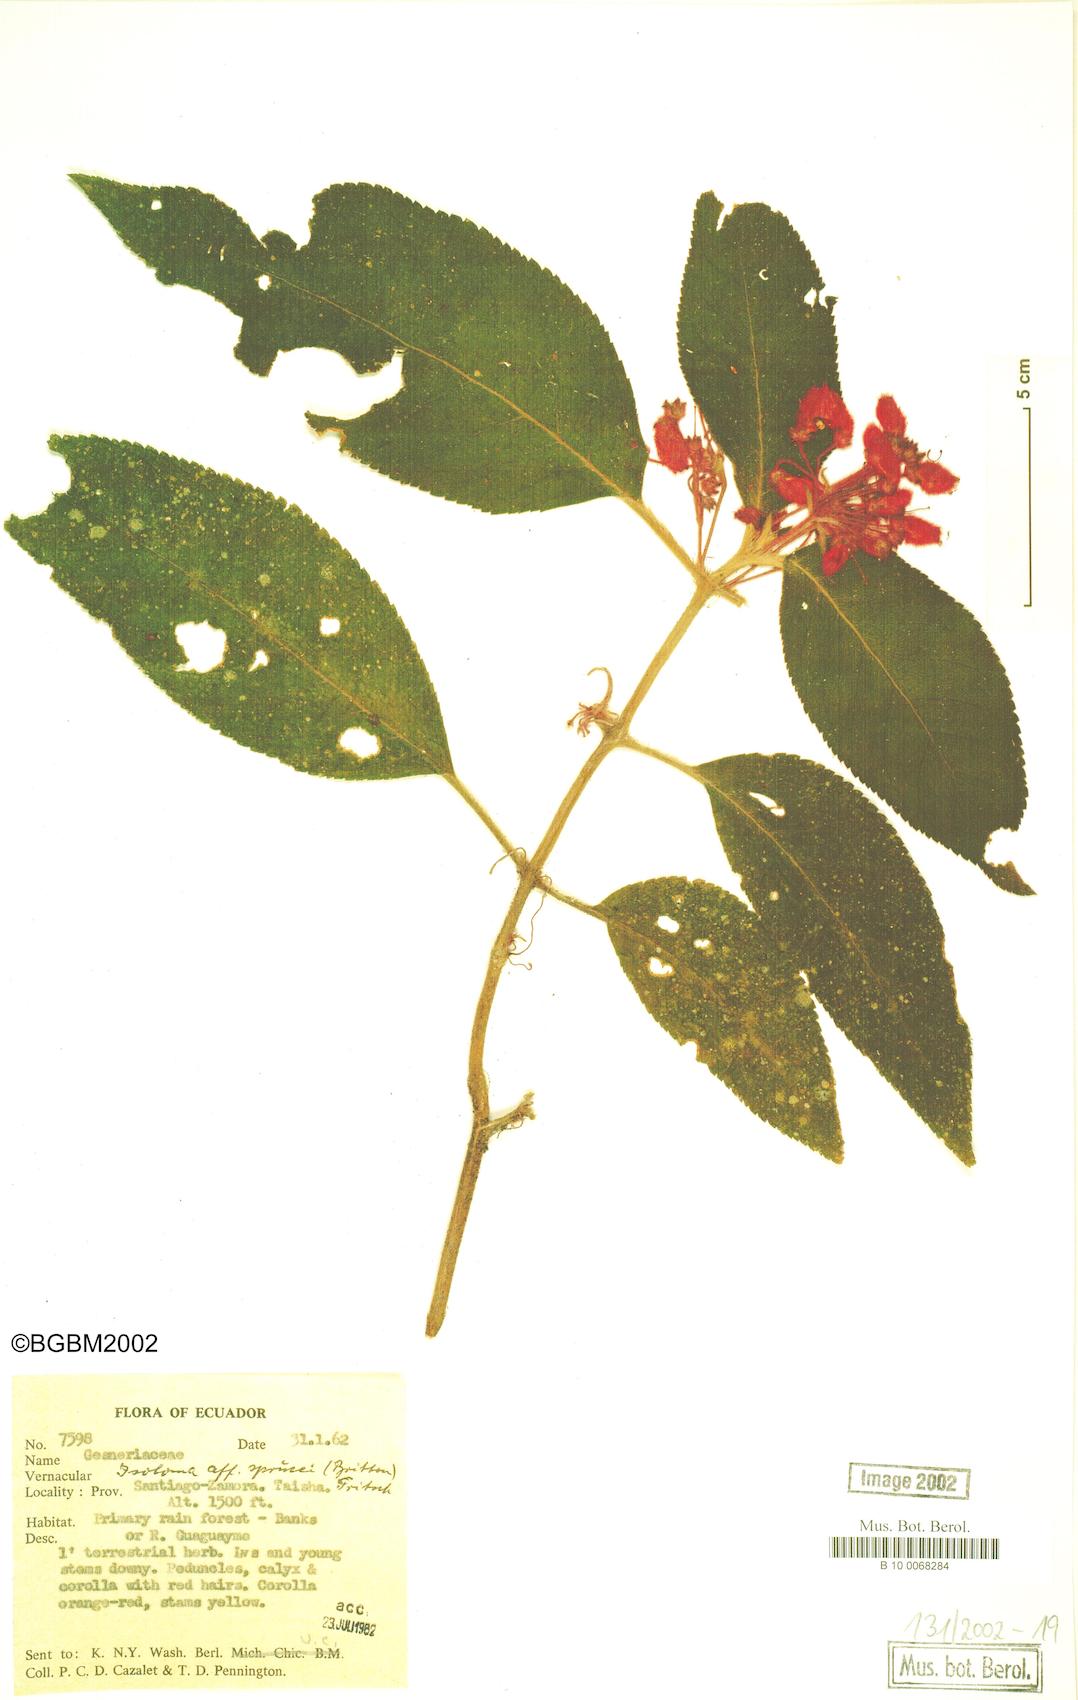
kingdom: Plantae
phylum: Tracheophyta
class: Magnoliopsida
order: Lamiales
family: Gesneriaceae
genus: Pearcea
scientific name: Pearcea sprucei
